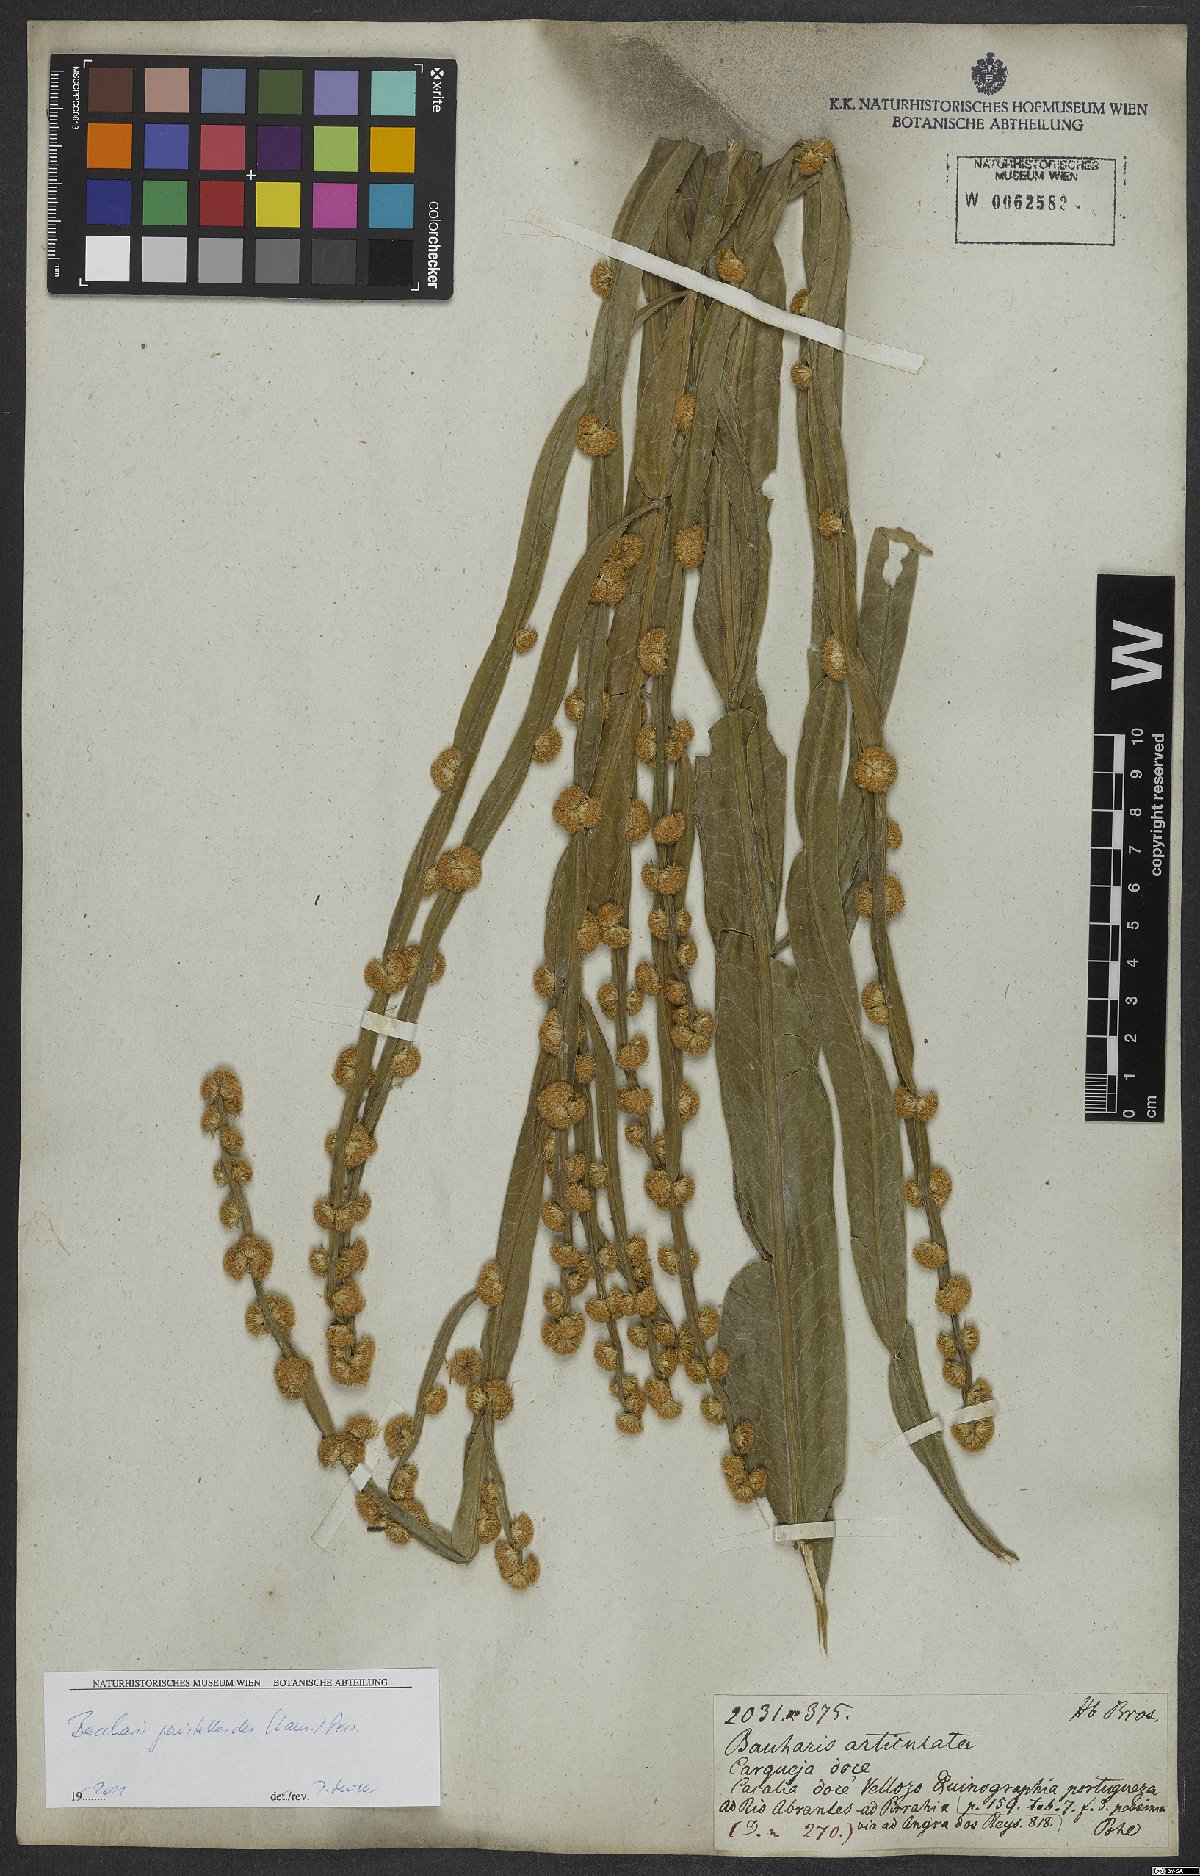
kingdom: Plantae
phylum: Tracheophyta
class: Magnoliopsida
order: Asterales
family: Asteraceae
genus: Baccharis
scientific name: Baccharis genistelloides
